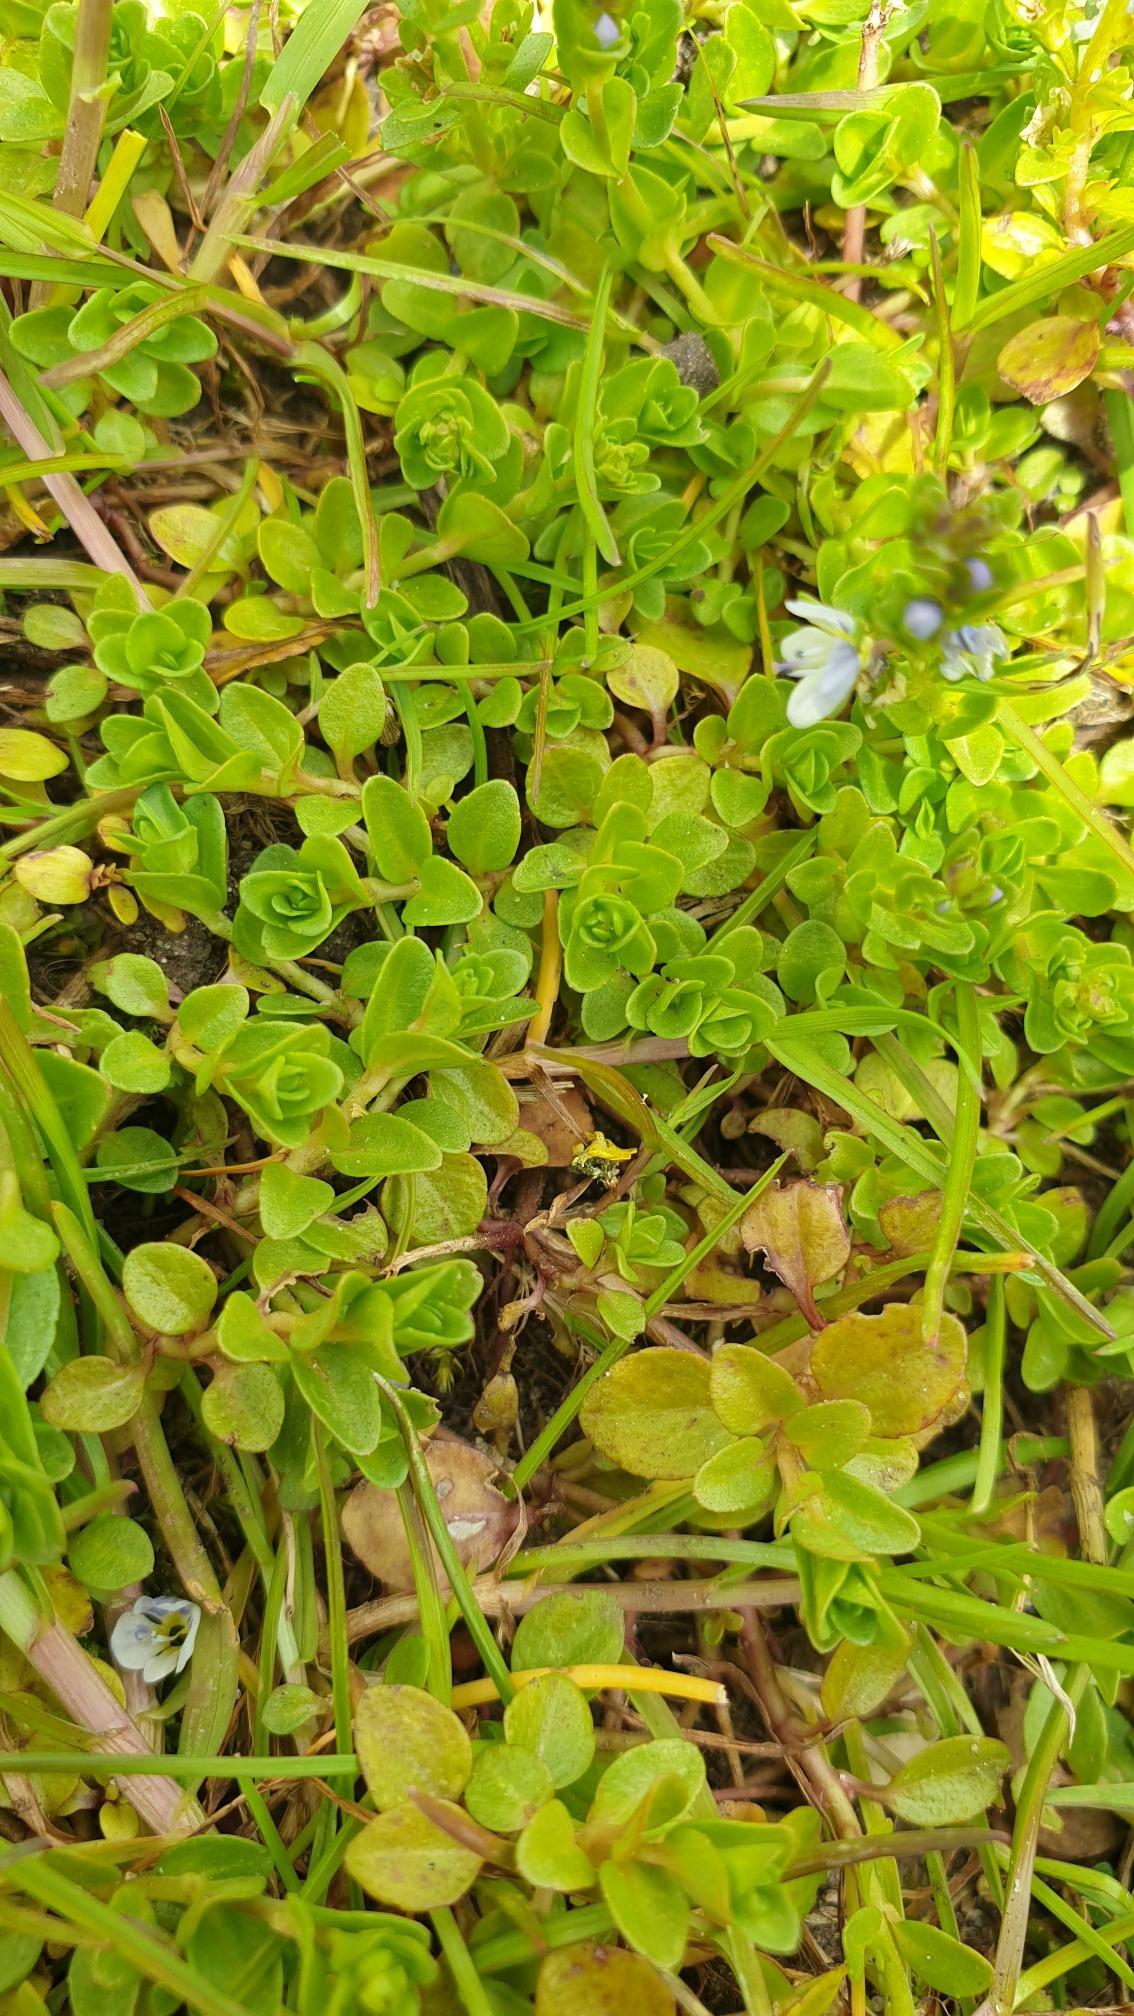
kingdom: Plantae
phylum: Tracheophyta
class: Magnoliopsida
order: Lamiales
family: Plantaginaceae
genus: Veronica
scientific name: Veronica serpyllifolia
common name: Glat ærenpris
